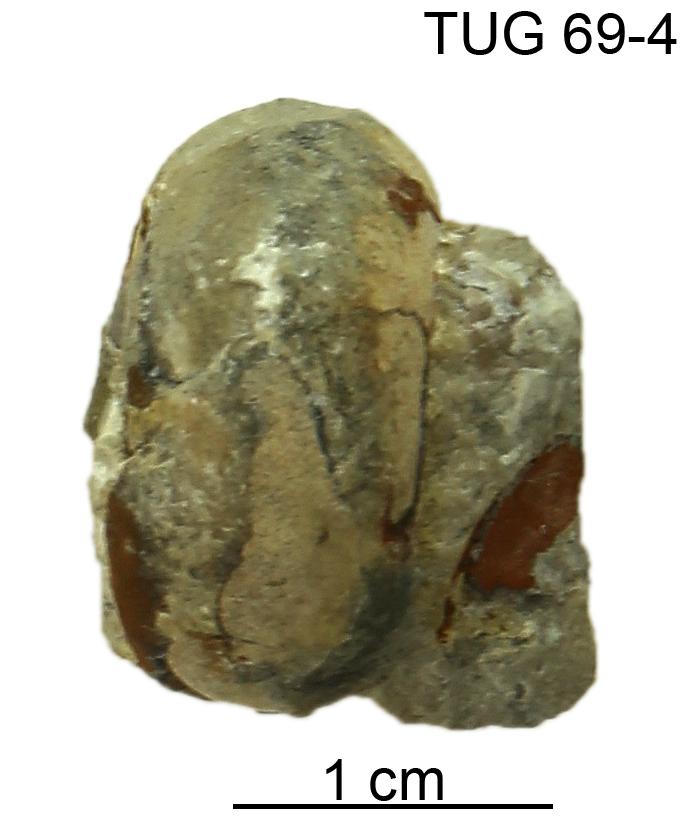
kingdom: Animalia
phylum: Mollusca
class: Gastropoda
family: Bucaniidae
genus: Megalomphala
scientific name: Megalomphala
